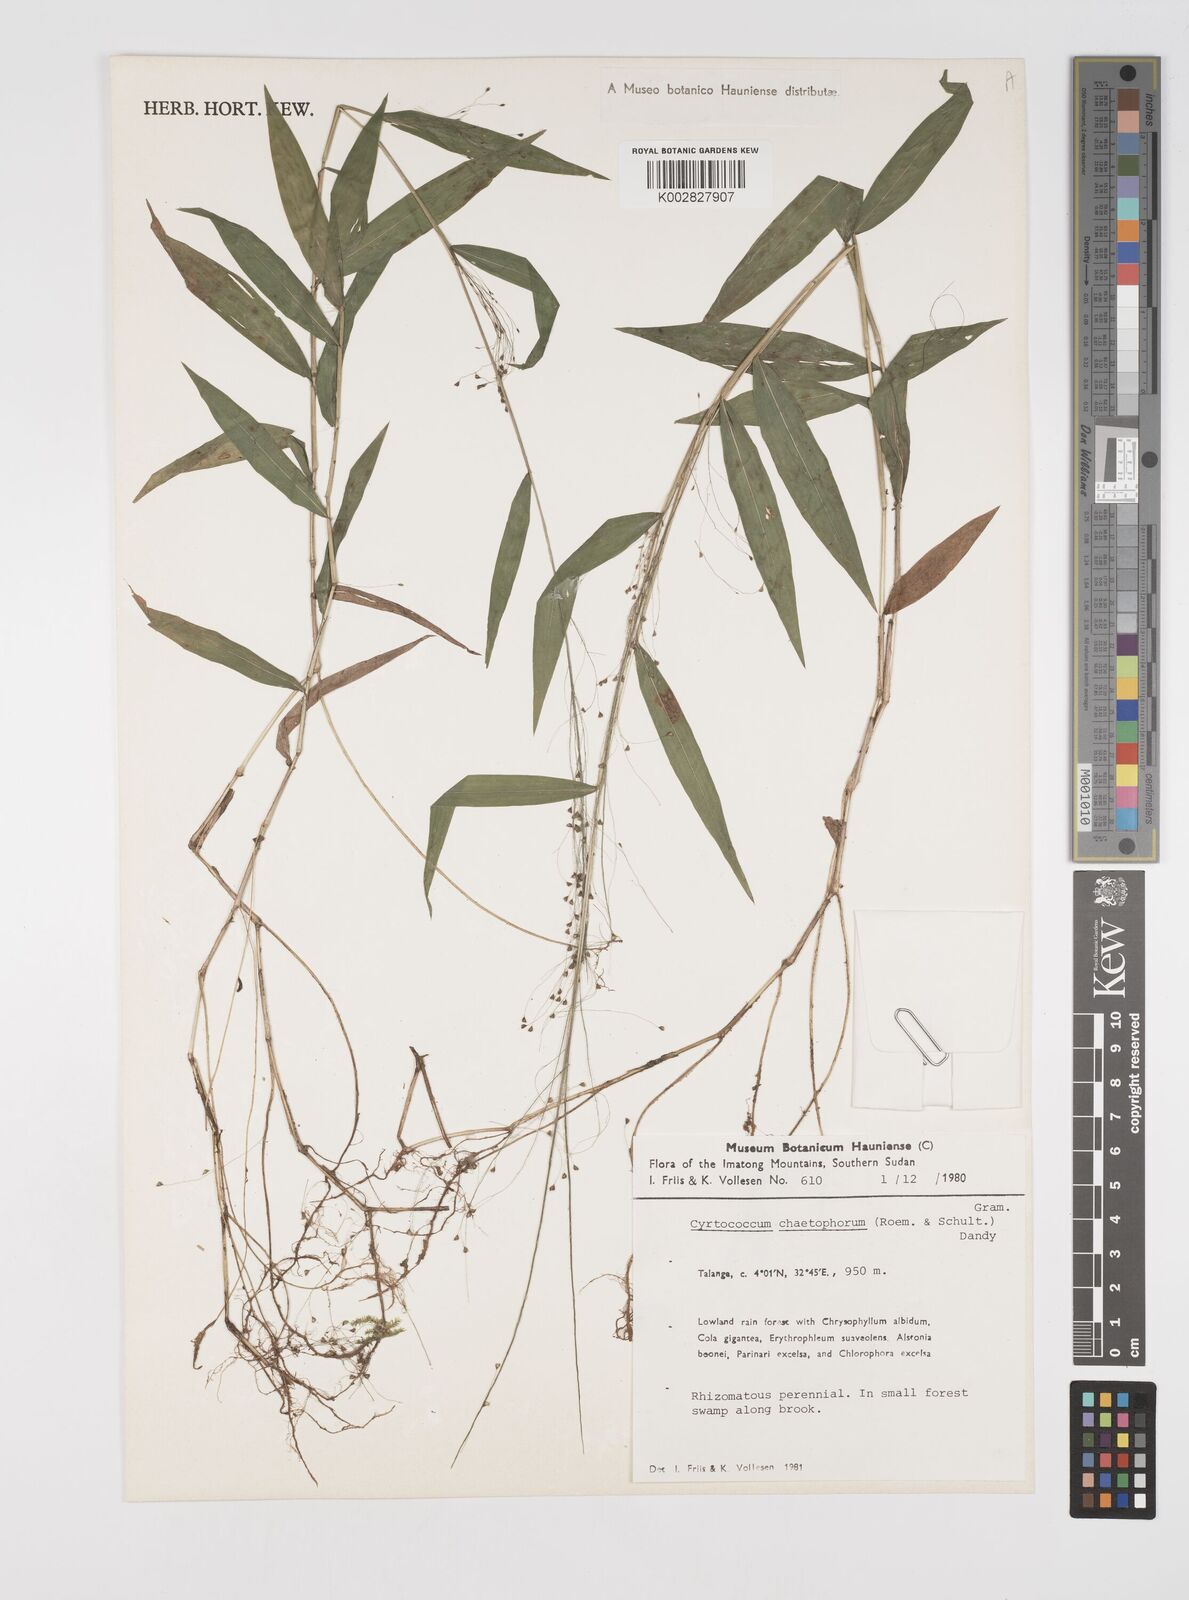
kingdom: Plantae
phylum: Tracheophyta
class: Liliopsida
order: Poales
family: Poaceae
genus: Cyrtococcum
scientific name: Cyrtococcum chaetophoron
